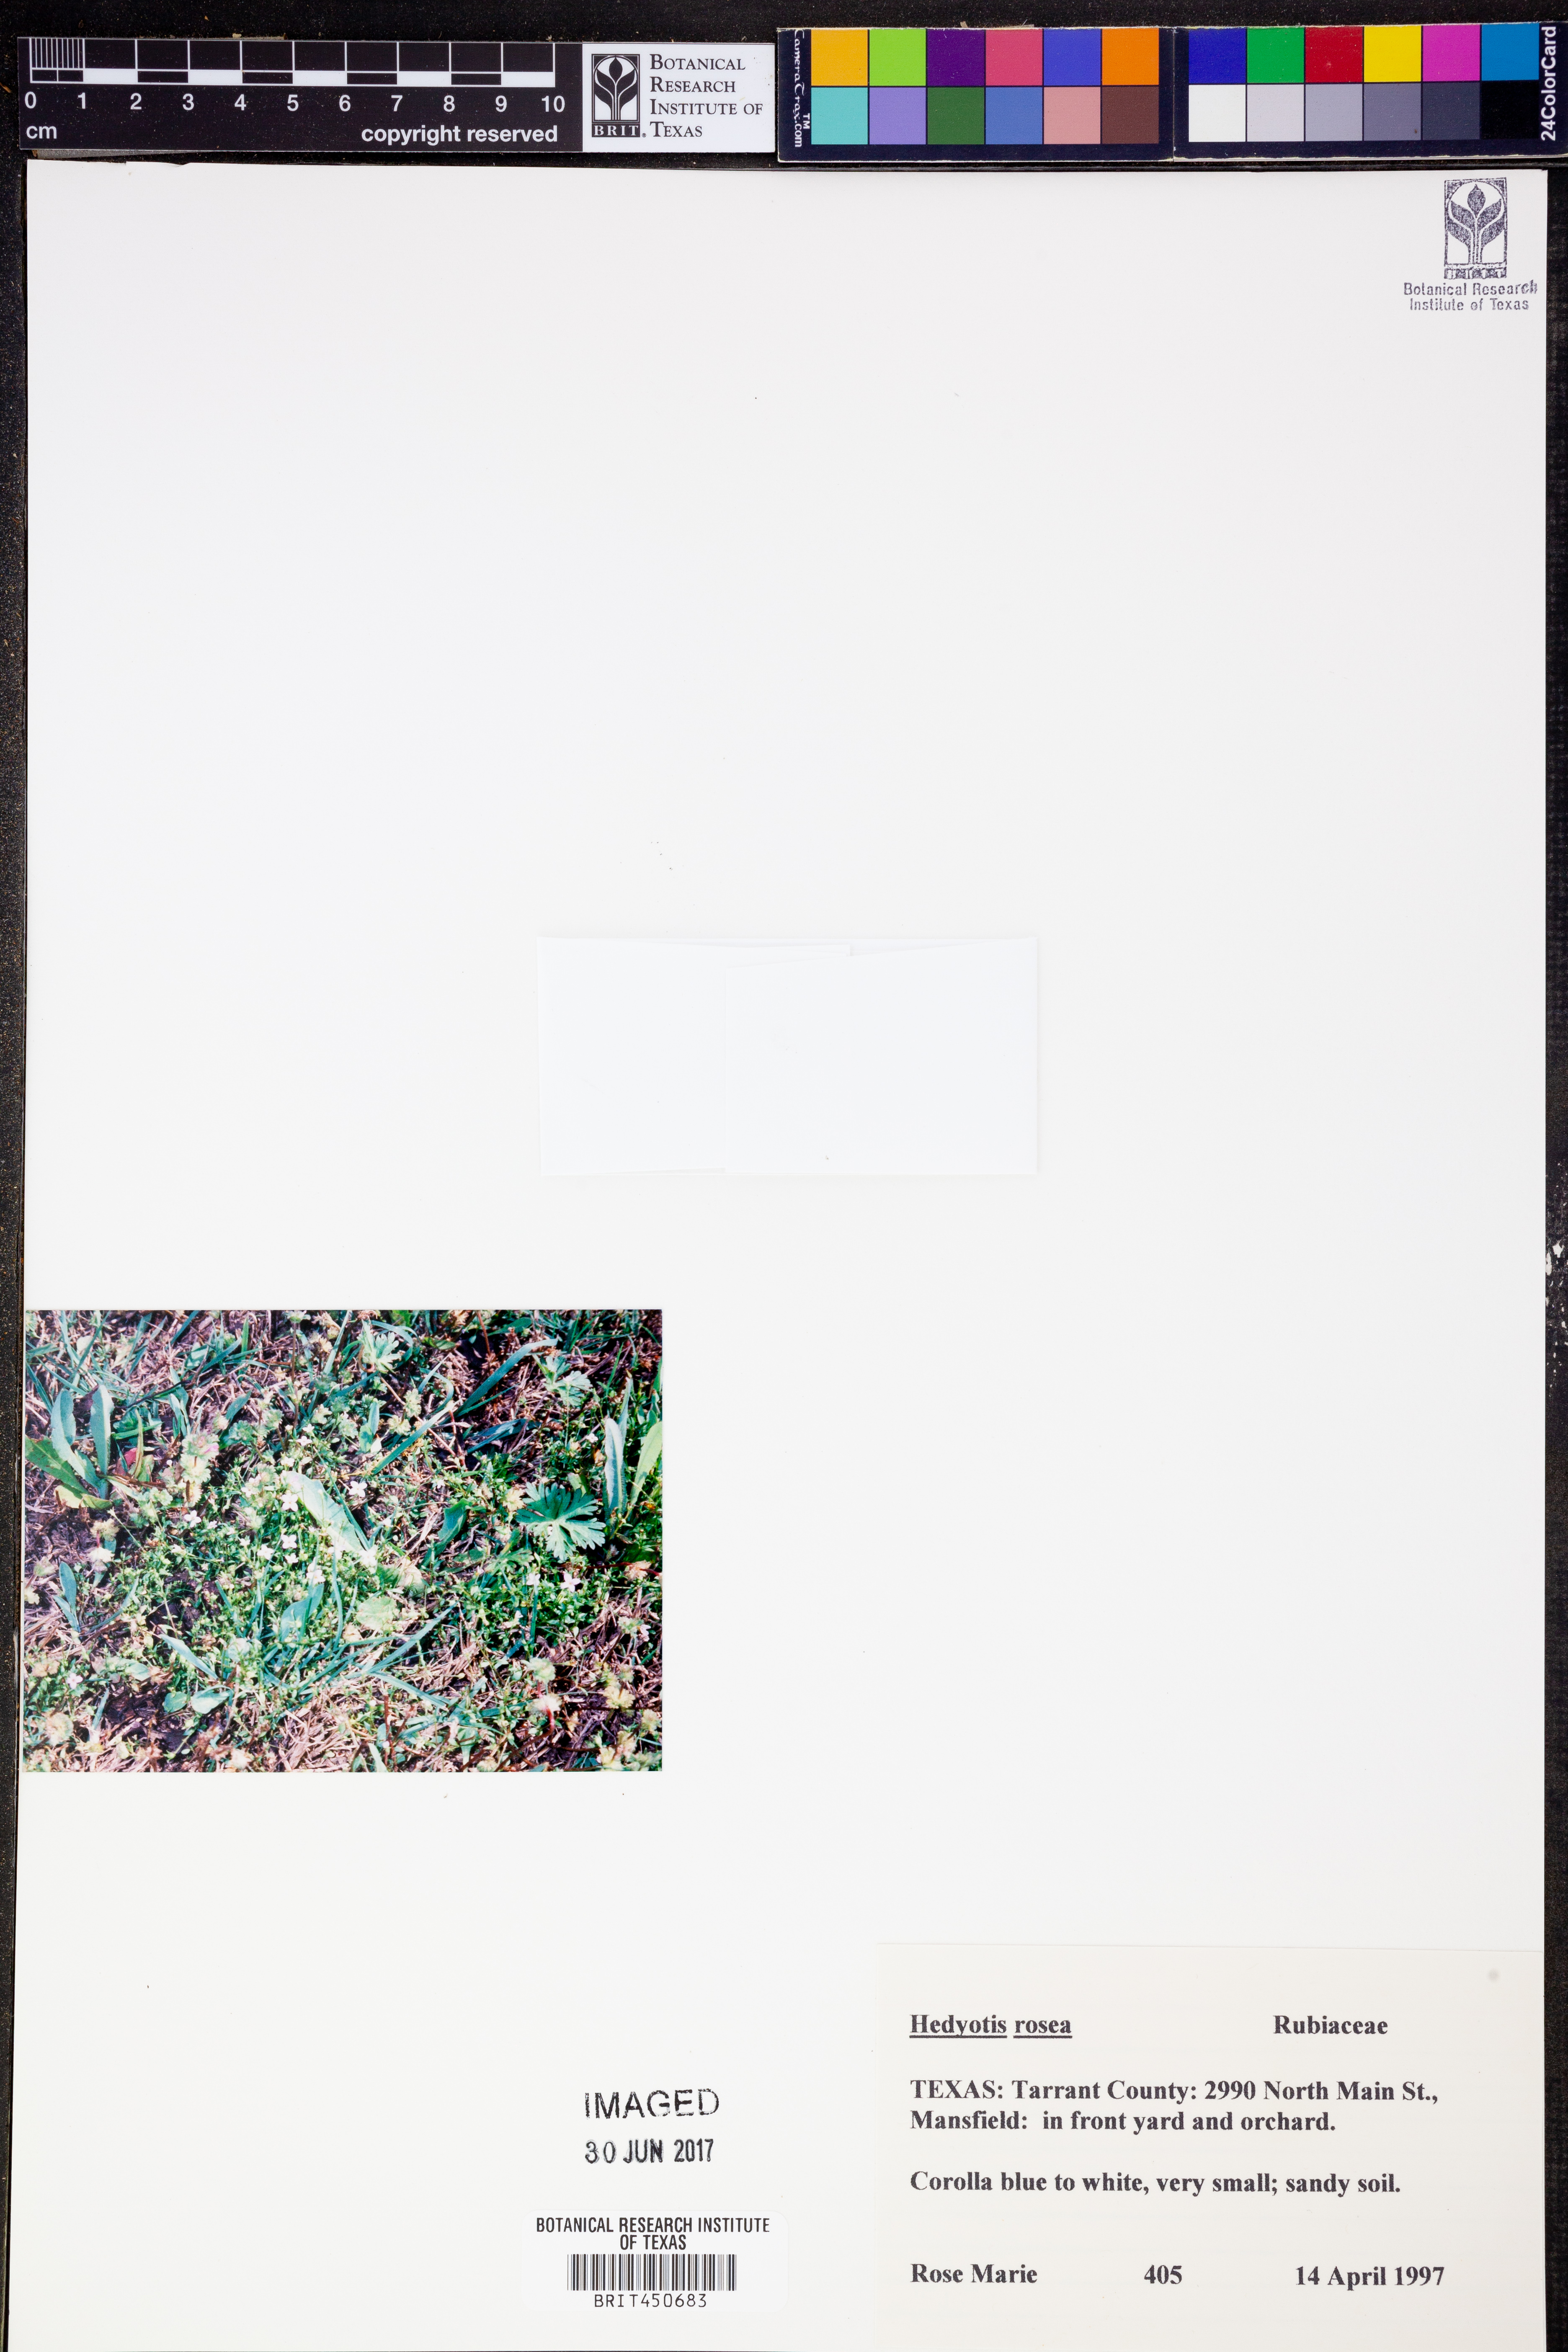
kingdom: Plantae
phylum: Tracheophyta
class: Magnoliopsida
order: Gentianales
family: Rubiaceae
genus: Houstonia
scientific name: Houstonia rosea
